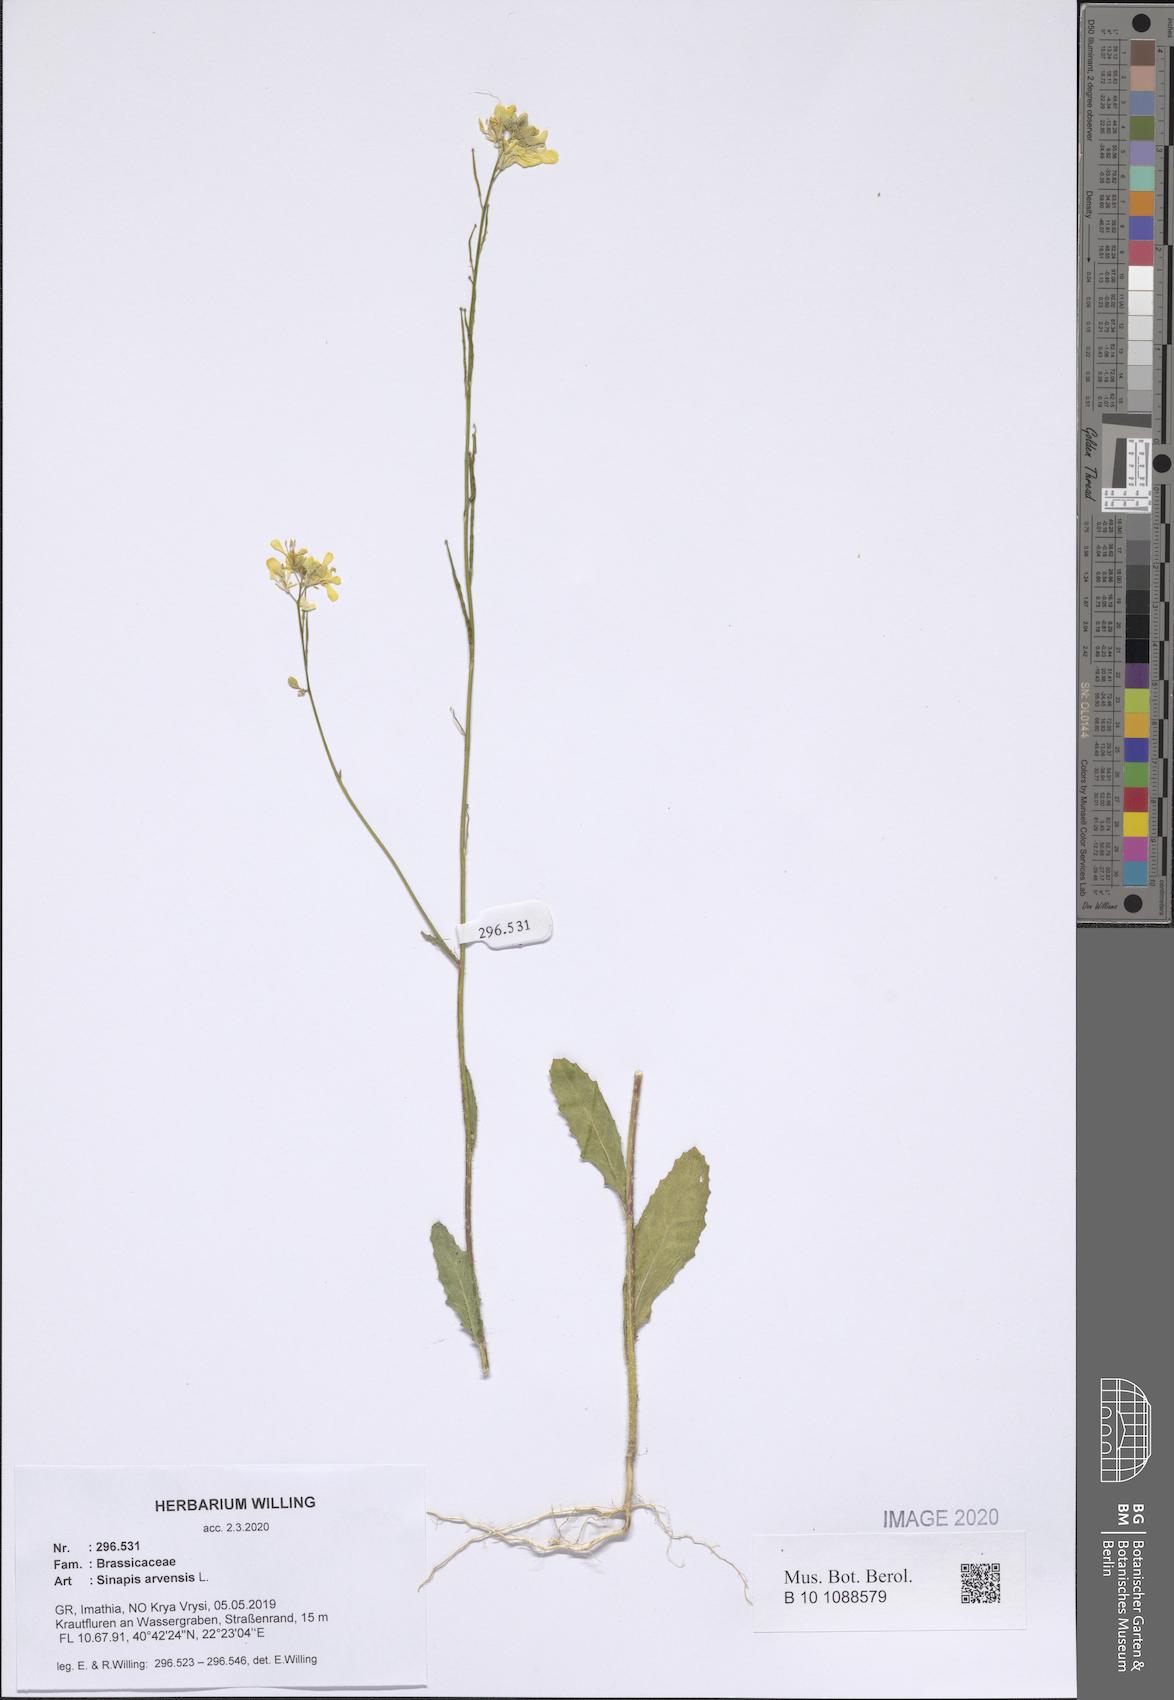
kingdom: Plantae
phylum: Tracheophyta
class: Magnoliopsida
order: Brassicales
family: Brassicaceae
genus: Sinapis
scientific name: Sinapis arvensis
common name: Charlock
